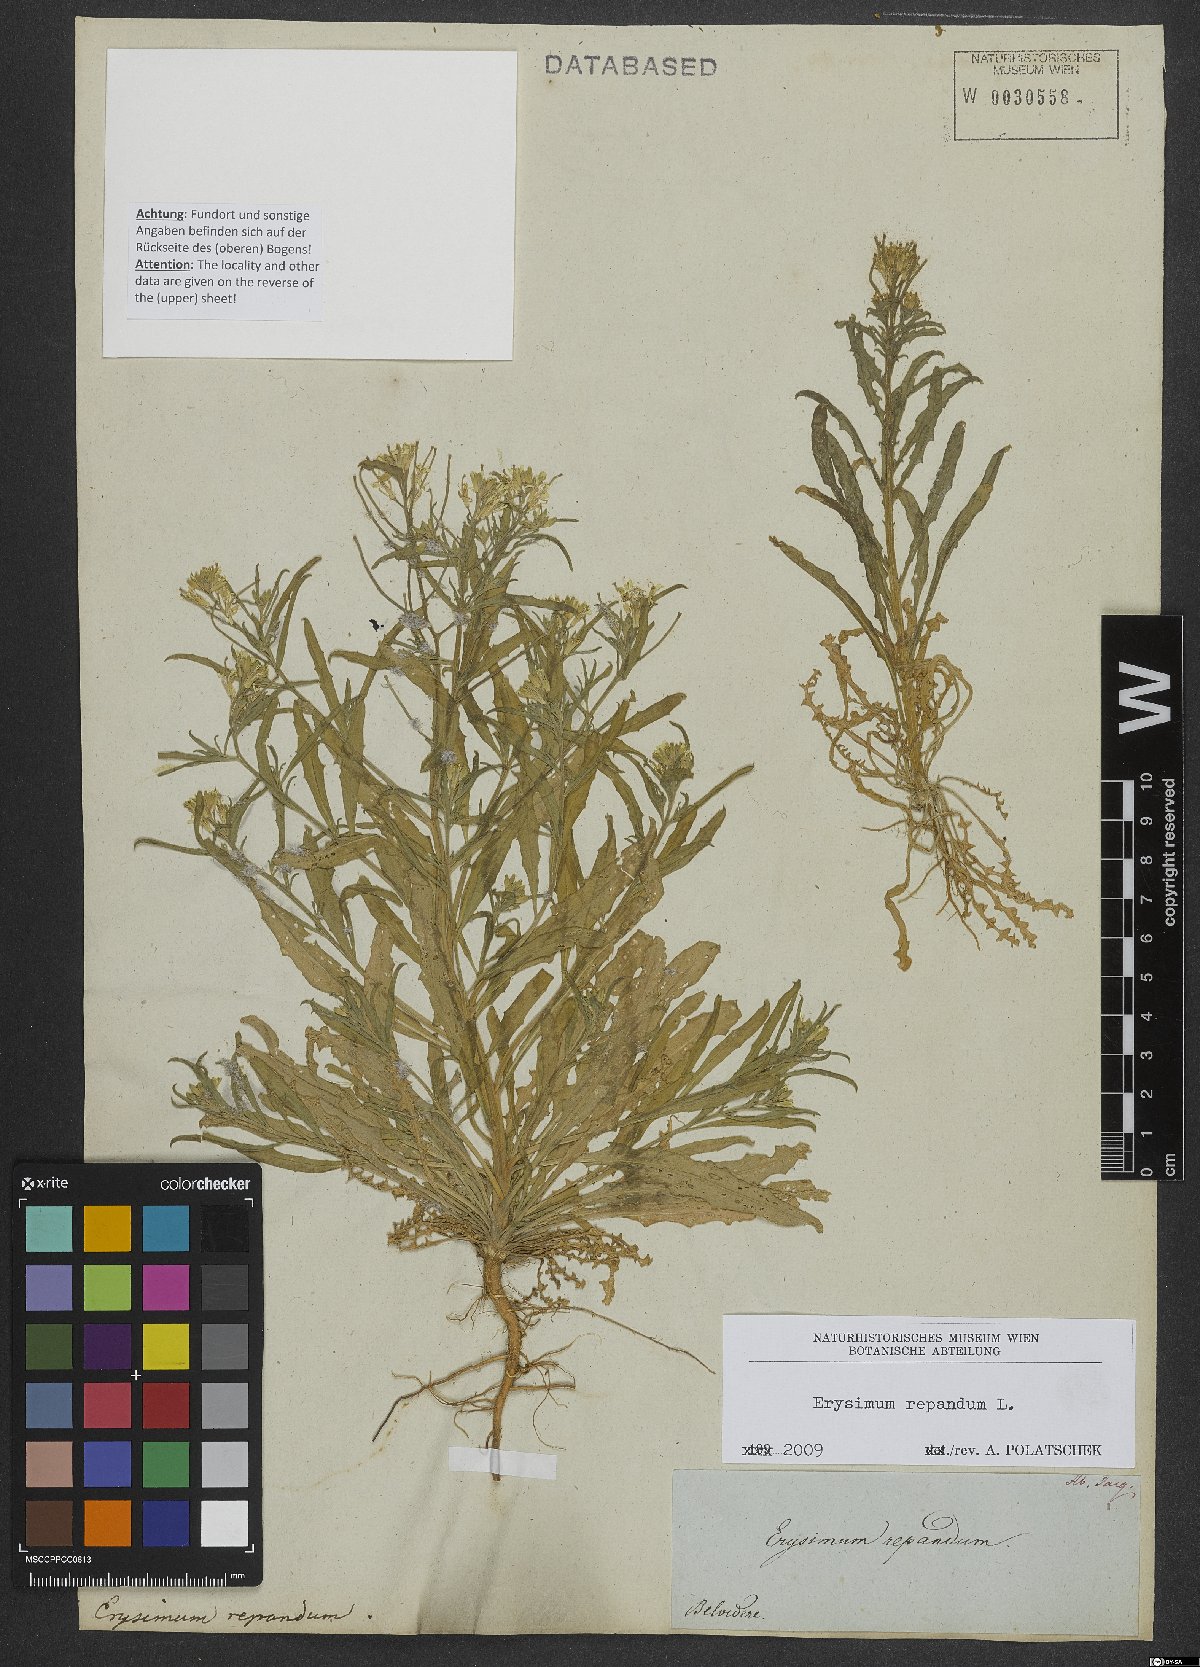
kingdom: Plantae
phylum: Tracheophyta
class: Magnoliopsida
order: Brassicales
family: Brassicaceae
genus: Erysimum
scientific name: Erysimum repandum
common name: Spreading wallflower
